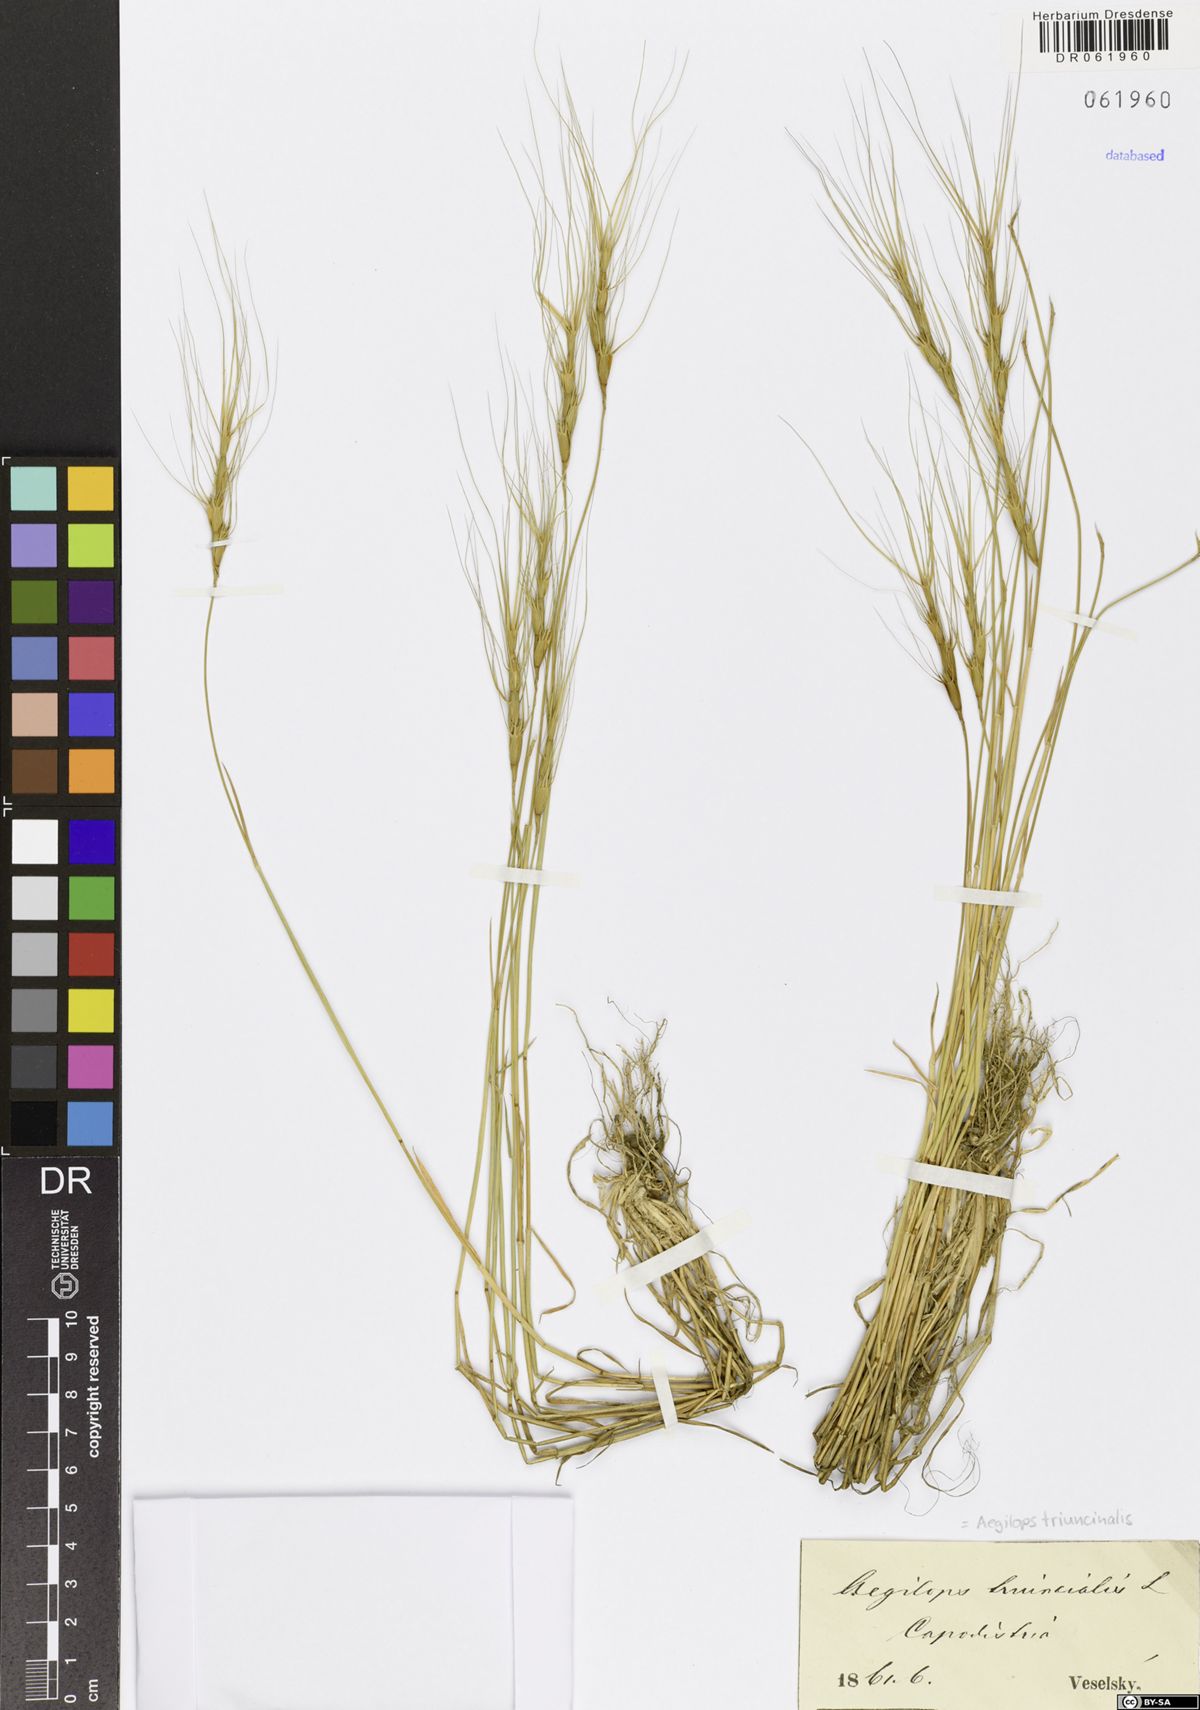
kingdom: Plantae
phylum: Tracheophyta
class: Liliopsida
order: Poales
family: Poaceae
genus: Aegilops
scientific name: Aegilops triuncialis
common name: Barb goat grass
